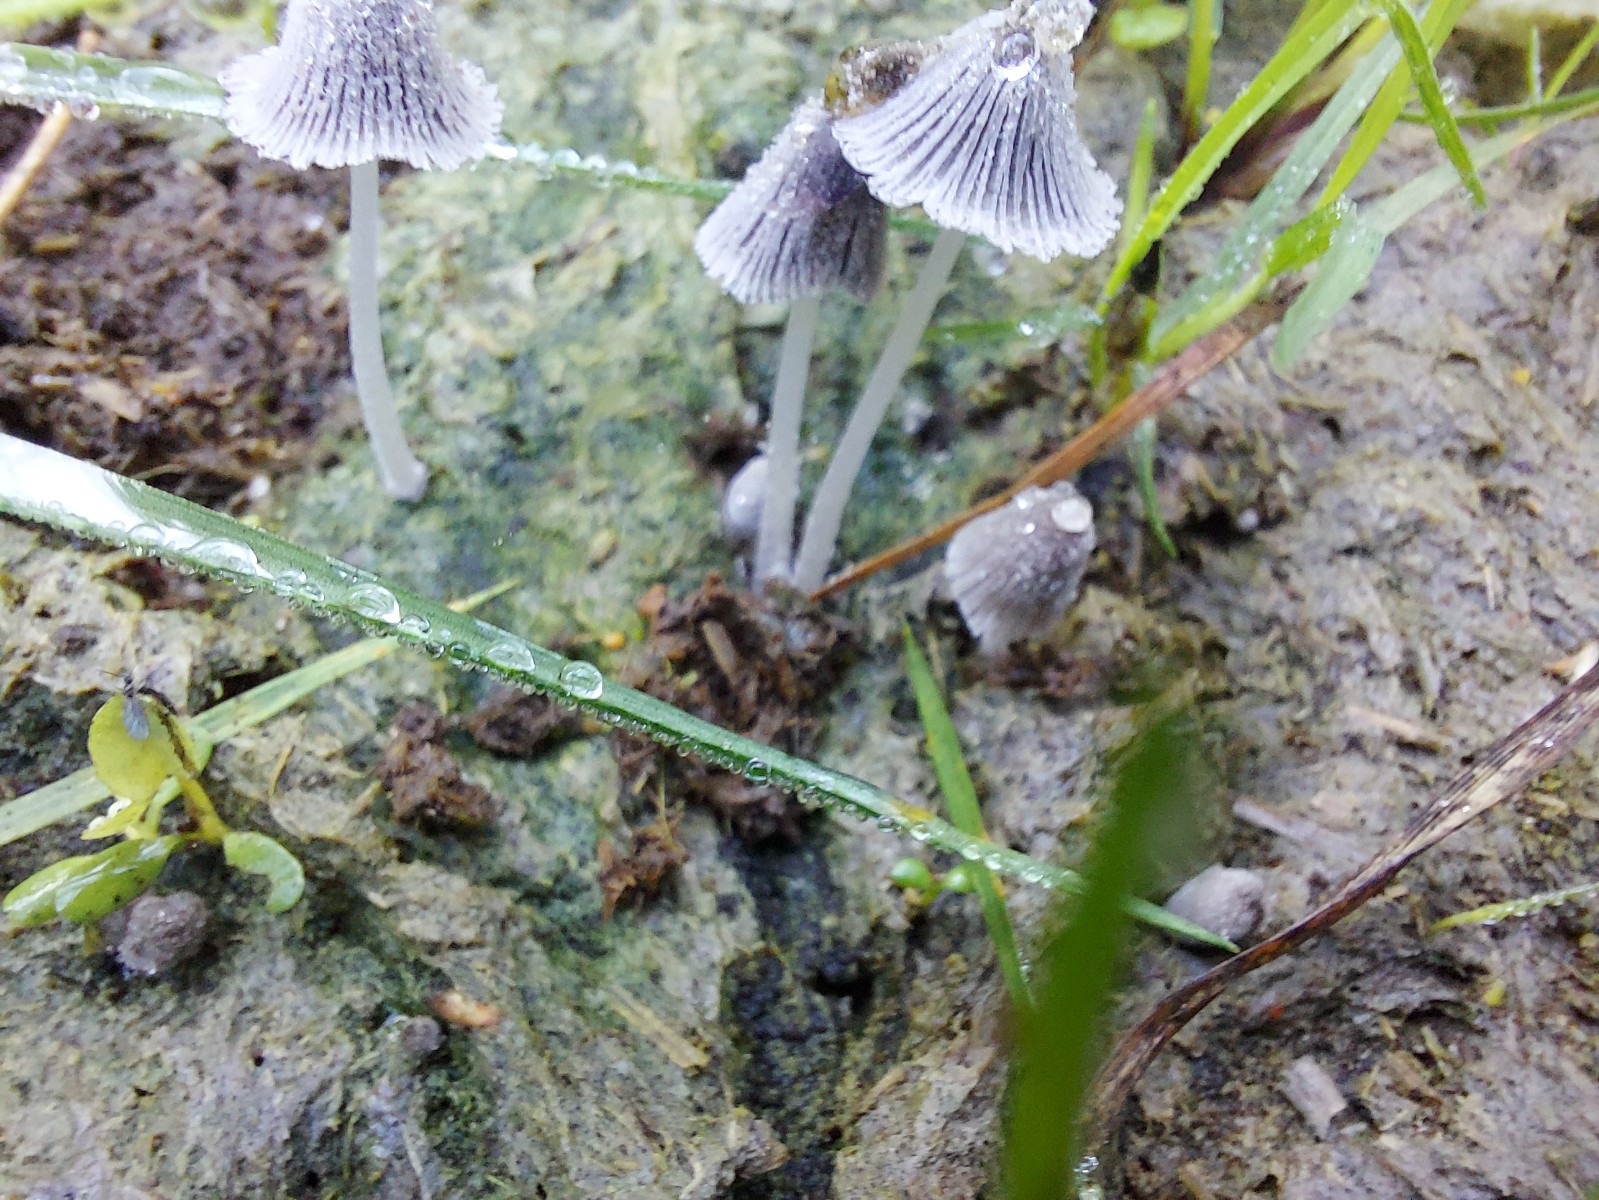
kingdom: Fungi
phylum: Basidiomycota
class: Agaricomycetes
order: Agaricales
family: Psathyrellaceae
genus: Coprinopsis
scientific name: Coprinopsis
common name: blækhat
